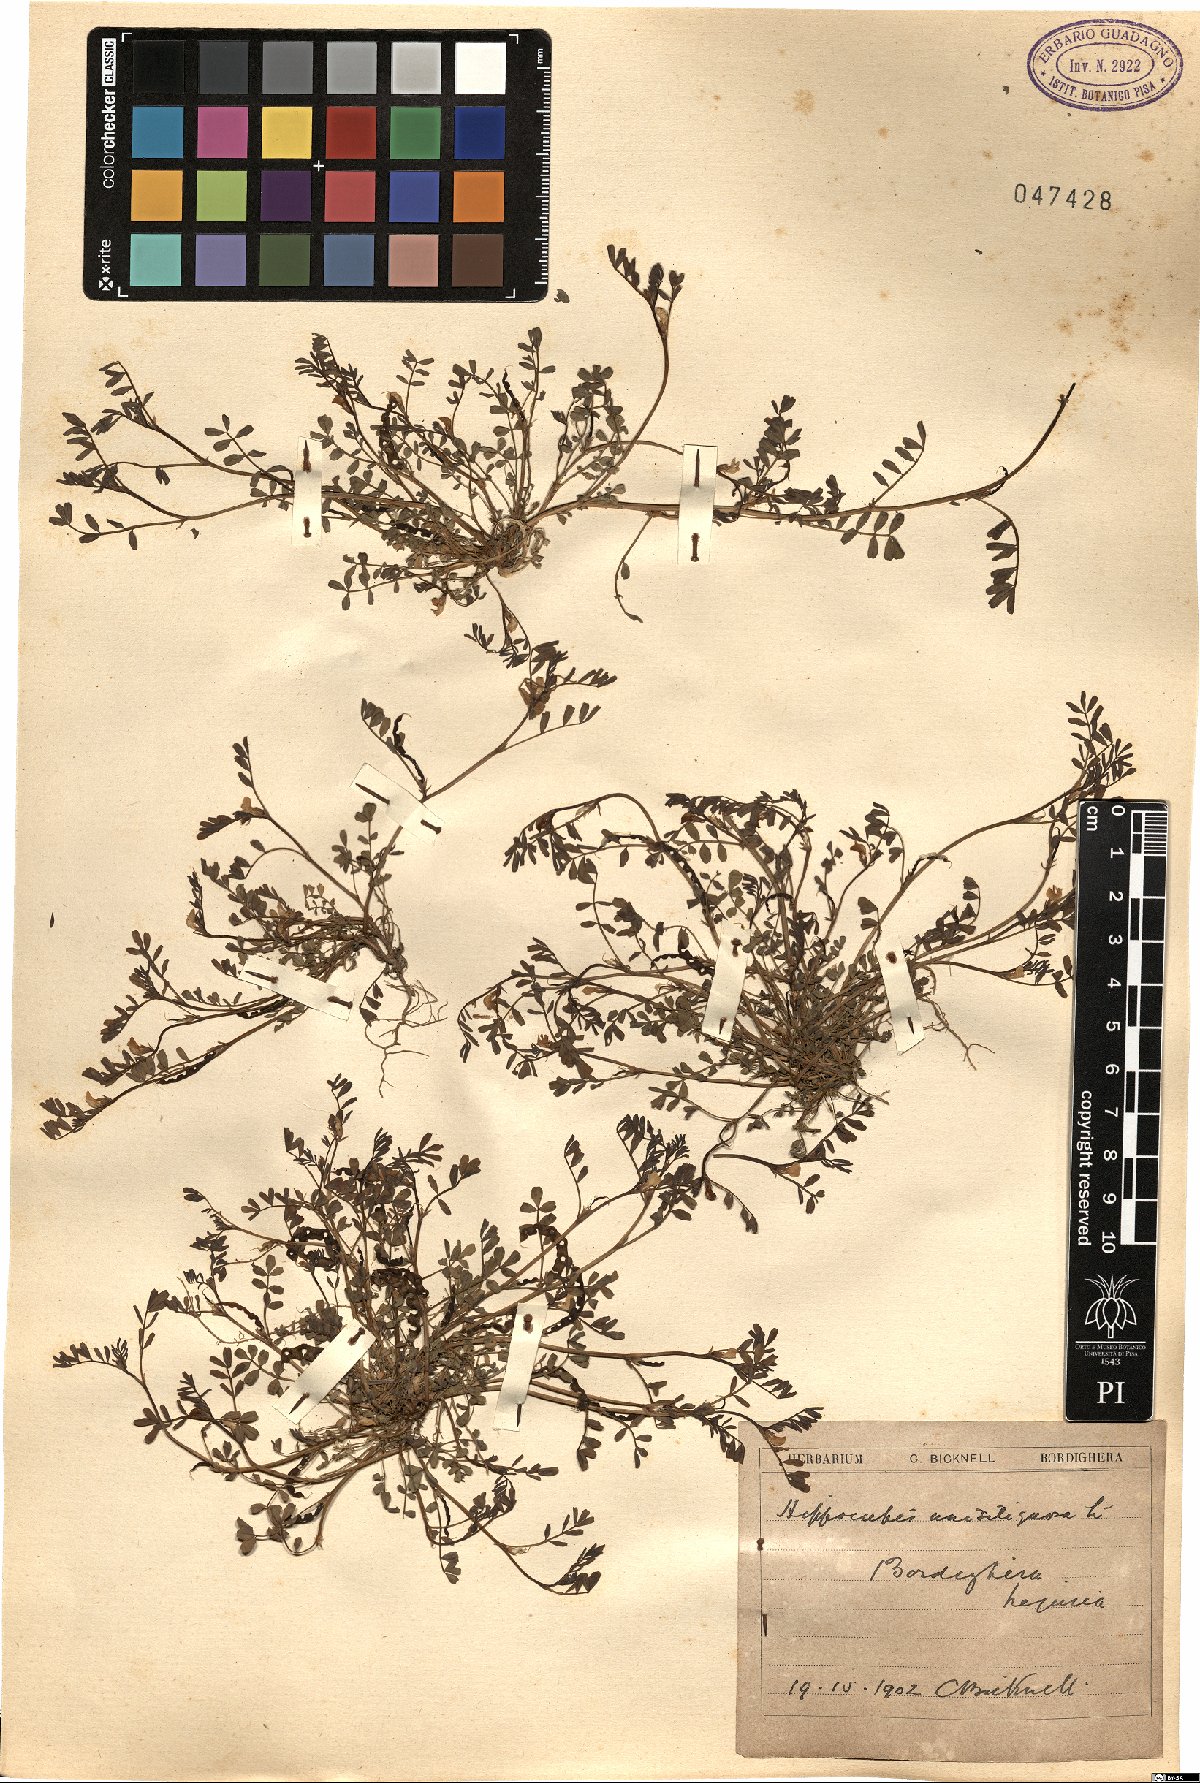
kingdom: Plantae
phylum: Tracheophyta
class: Magnoliopsida
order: Fabales
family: Fabaceae
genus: Hippocrepis
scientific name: Hippocrepis unisiliquosa
